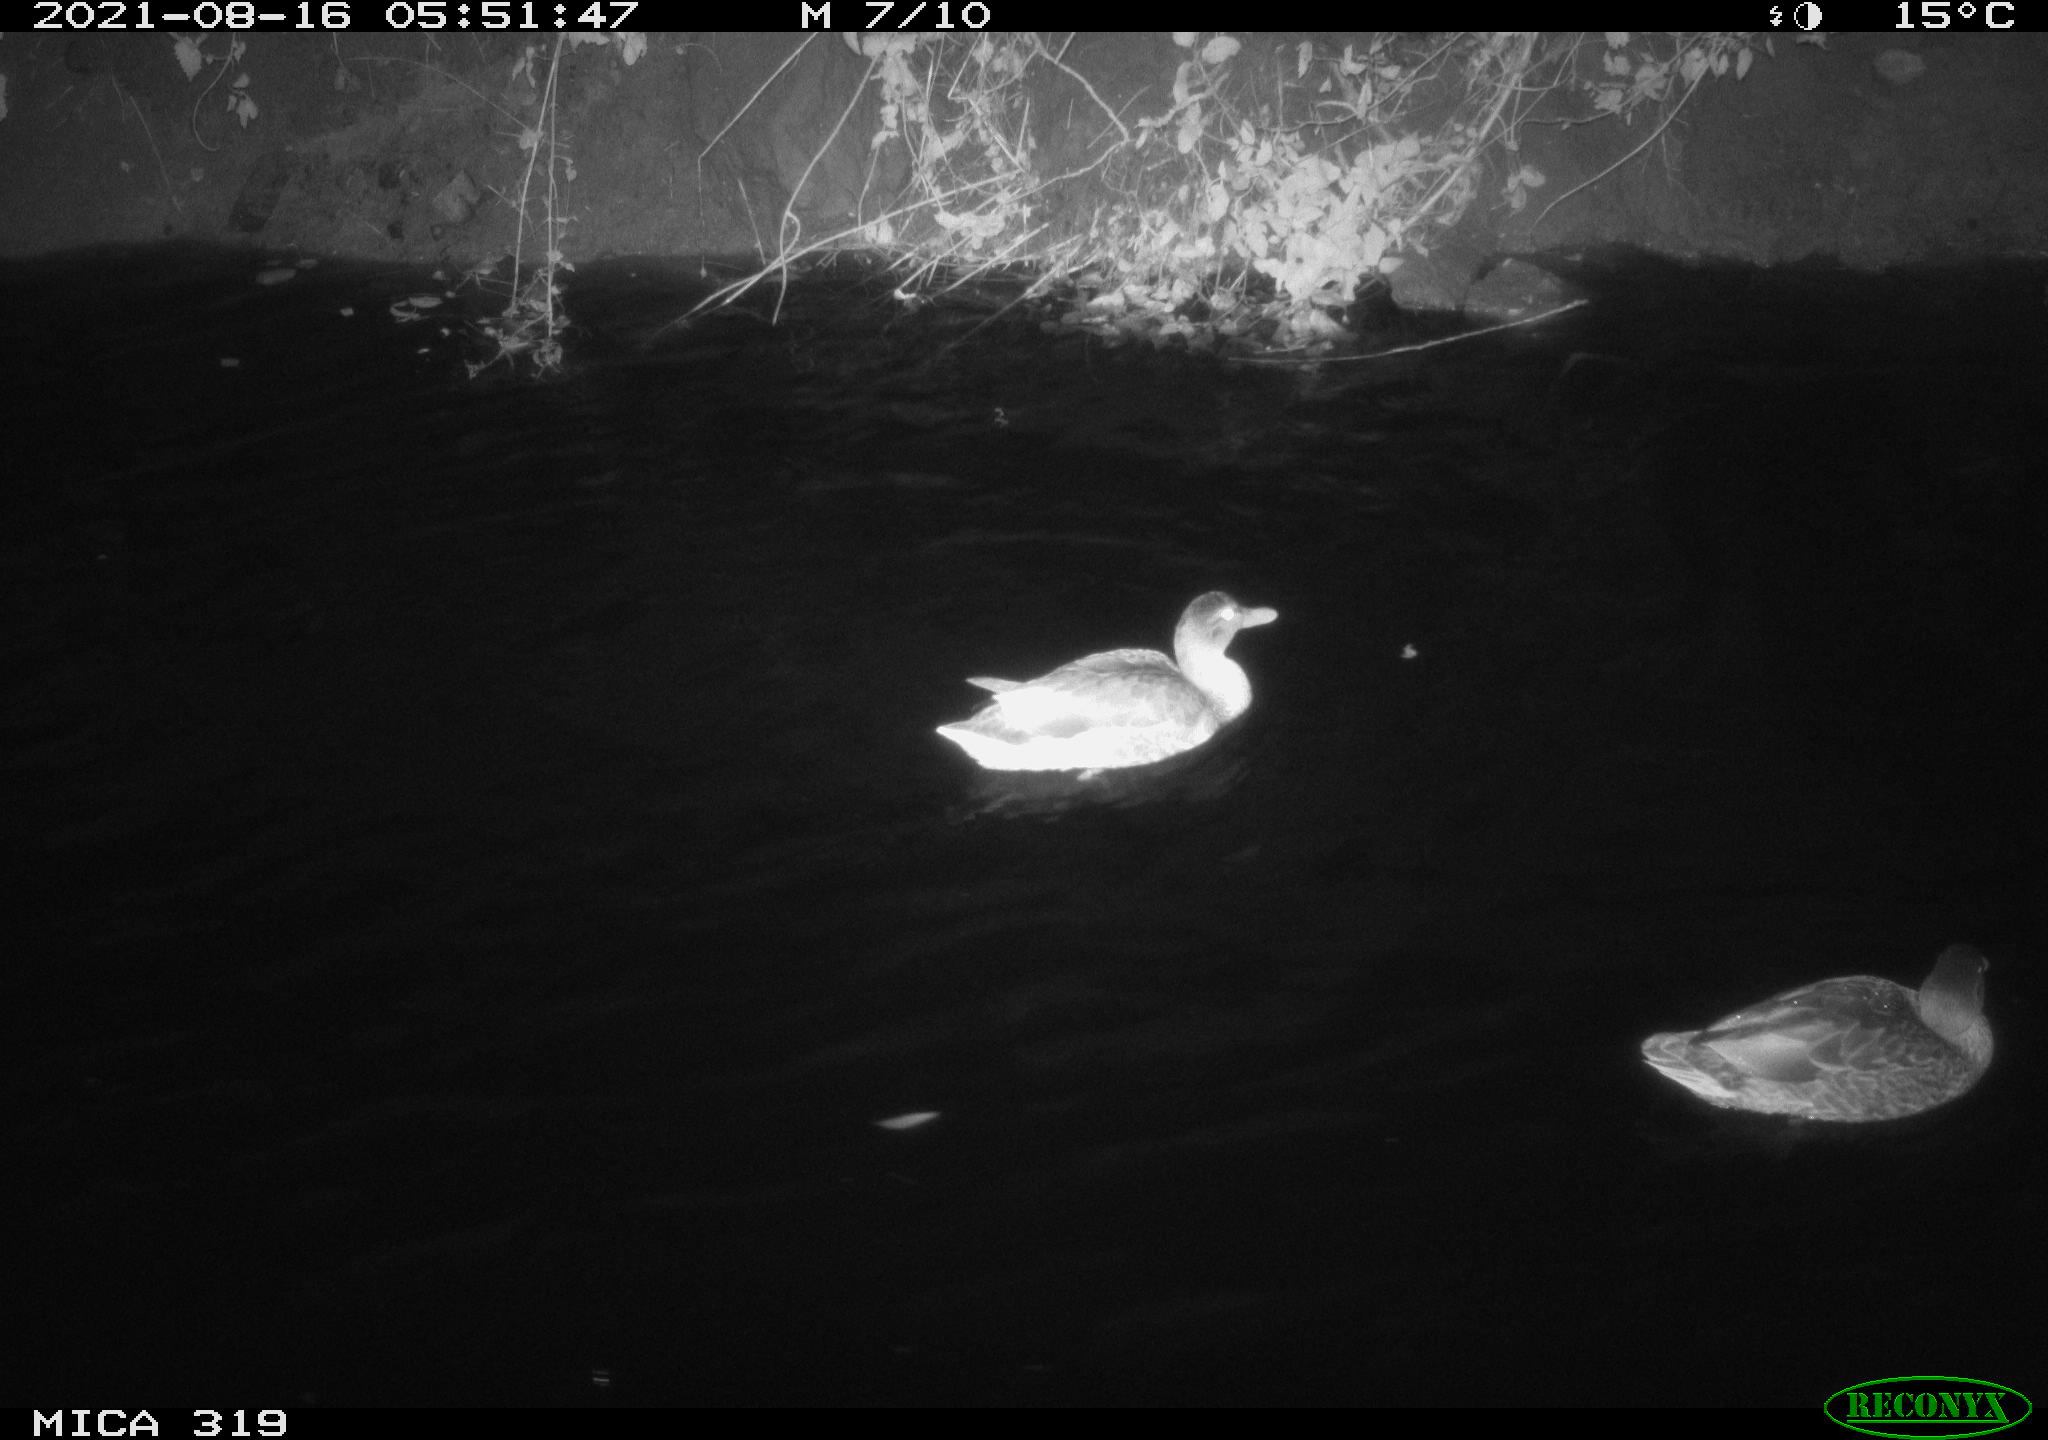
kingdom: Animalia
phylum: Chordata
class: Aves
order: Anseriformes
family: Anatidae
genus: Anas
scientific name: Anas platyrhynchos
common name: Mallard
